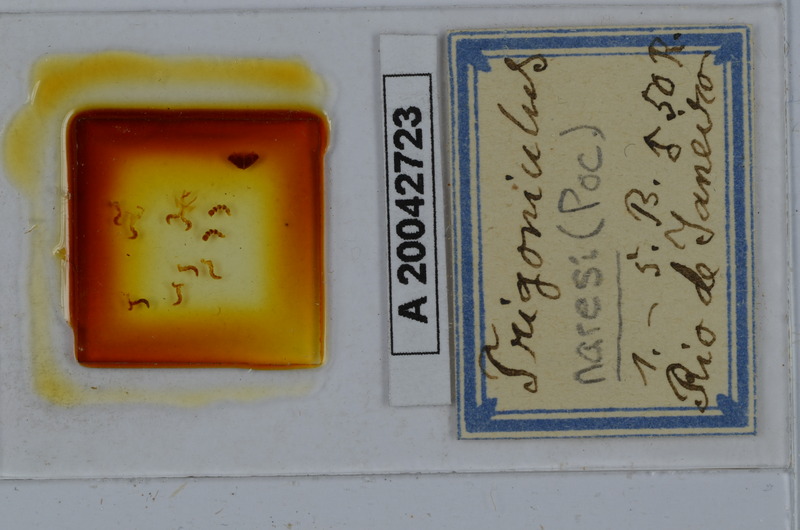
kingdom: Animalia
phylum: Arthropoda
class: Diplopoda
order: Spirobolida
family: Pachybolidae
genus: Leptogoniulus
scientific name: Leptogoniulus sorornus
